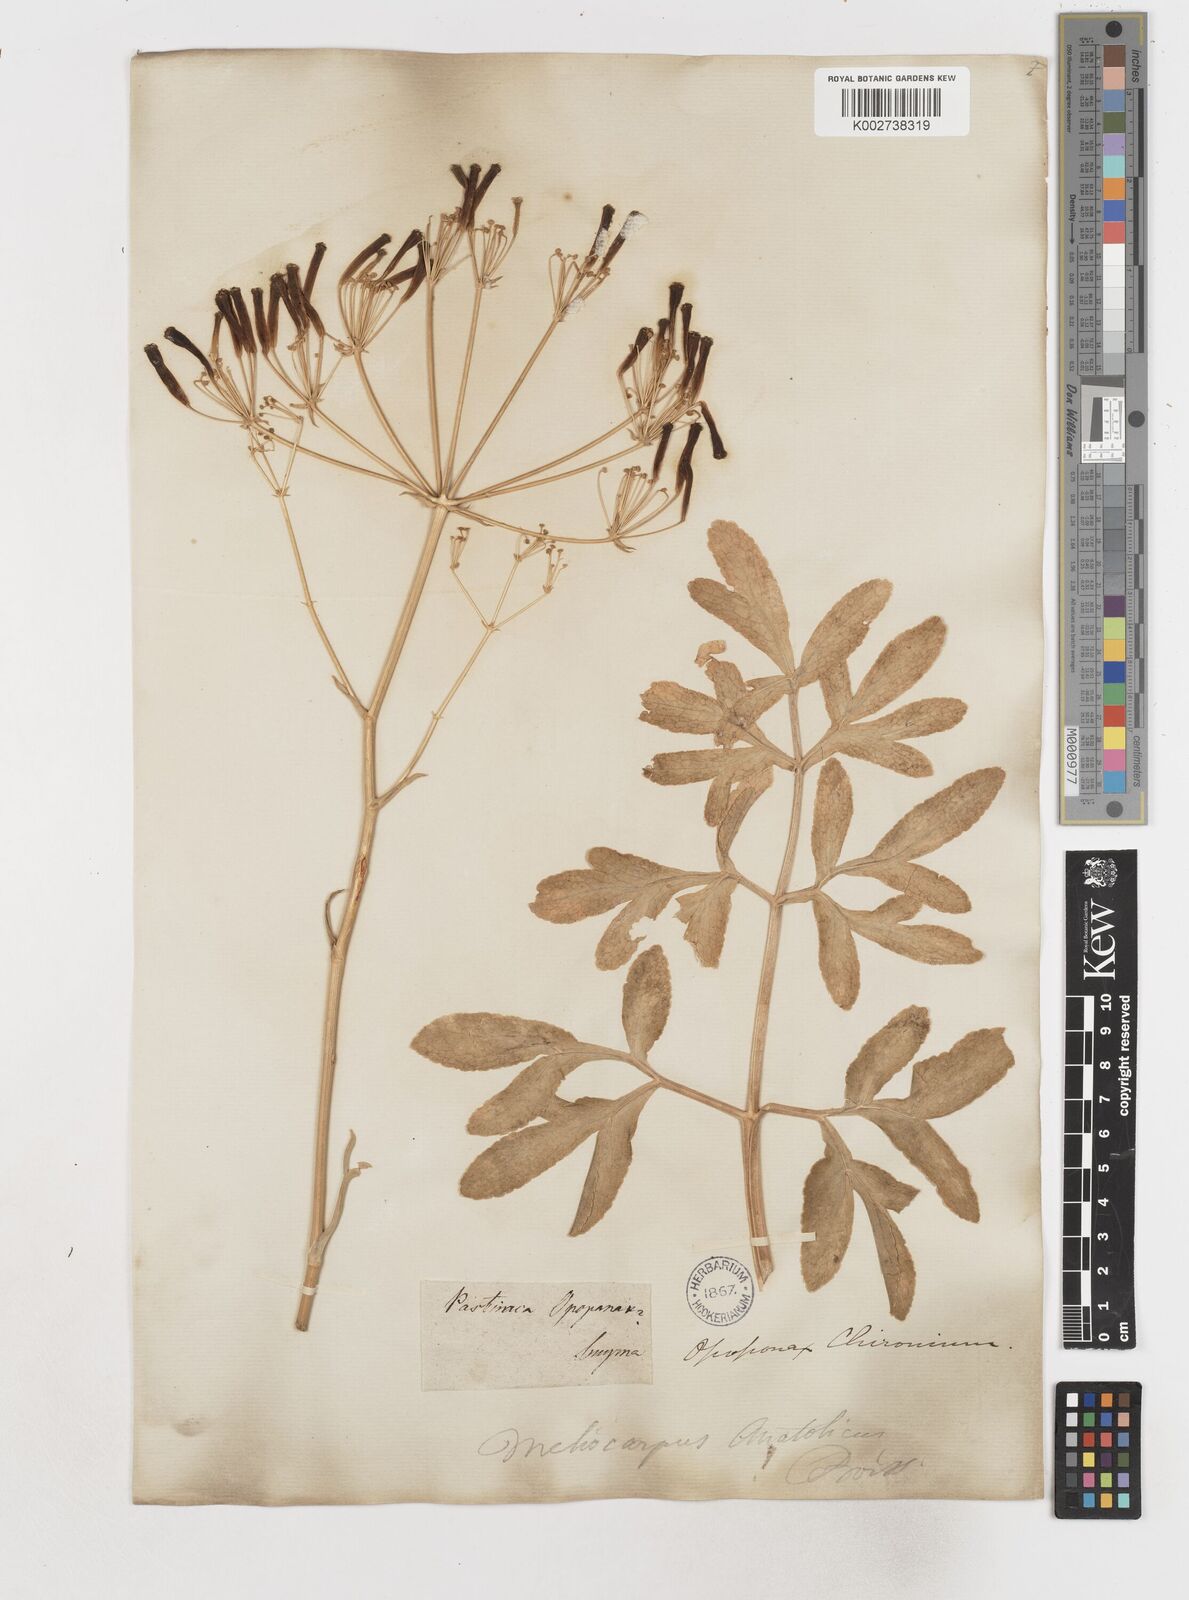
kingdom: Plantae
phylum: Tracheophyta
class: Magnoliopsida
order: Apiales
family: Apiaceae
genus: Heptaptera
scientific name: Heptaptera anatolica
